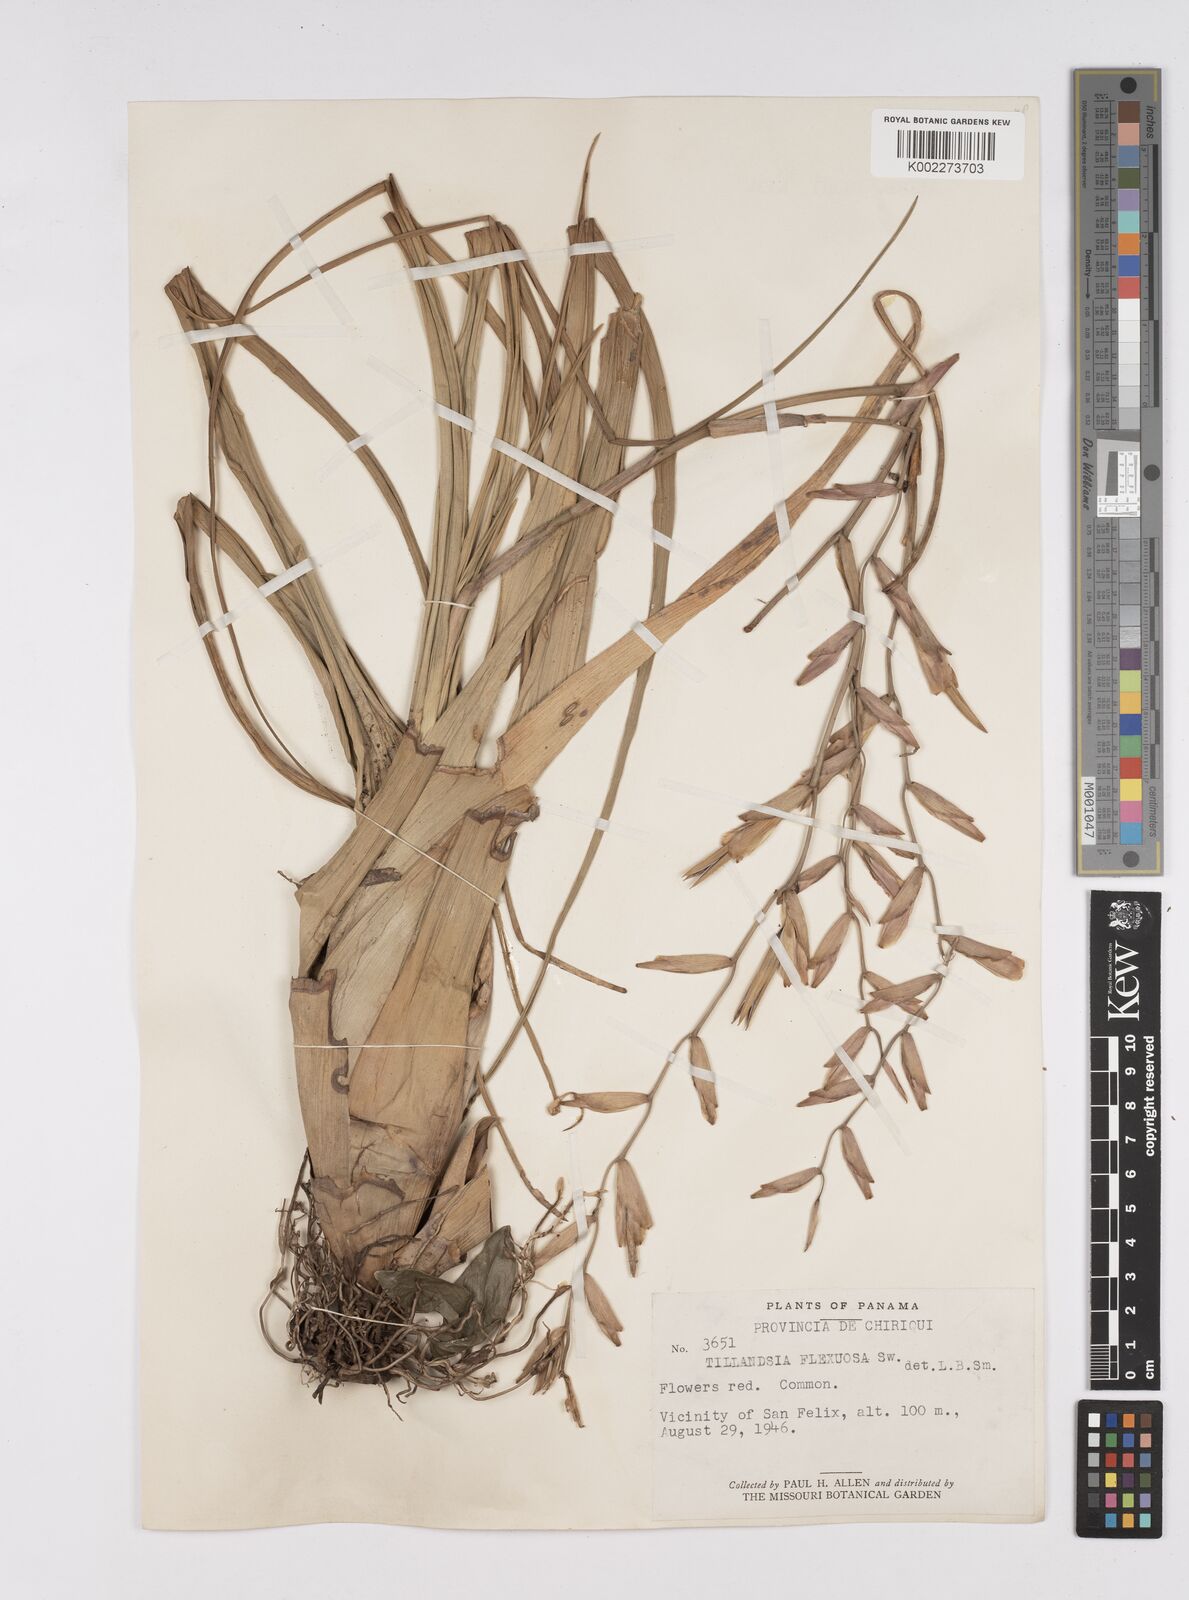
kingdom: Plantae
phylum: Tracheophyta
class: Liliopsida
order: Poales
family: Bromeliaceae
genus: Tillandsia
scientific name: Tillandsia flexuosa
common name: Banded airplant
